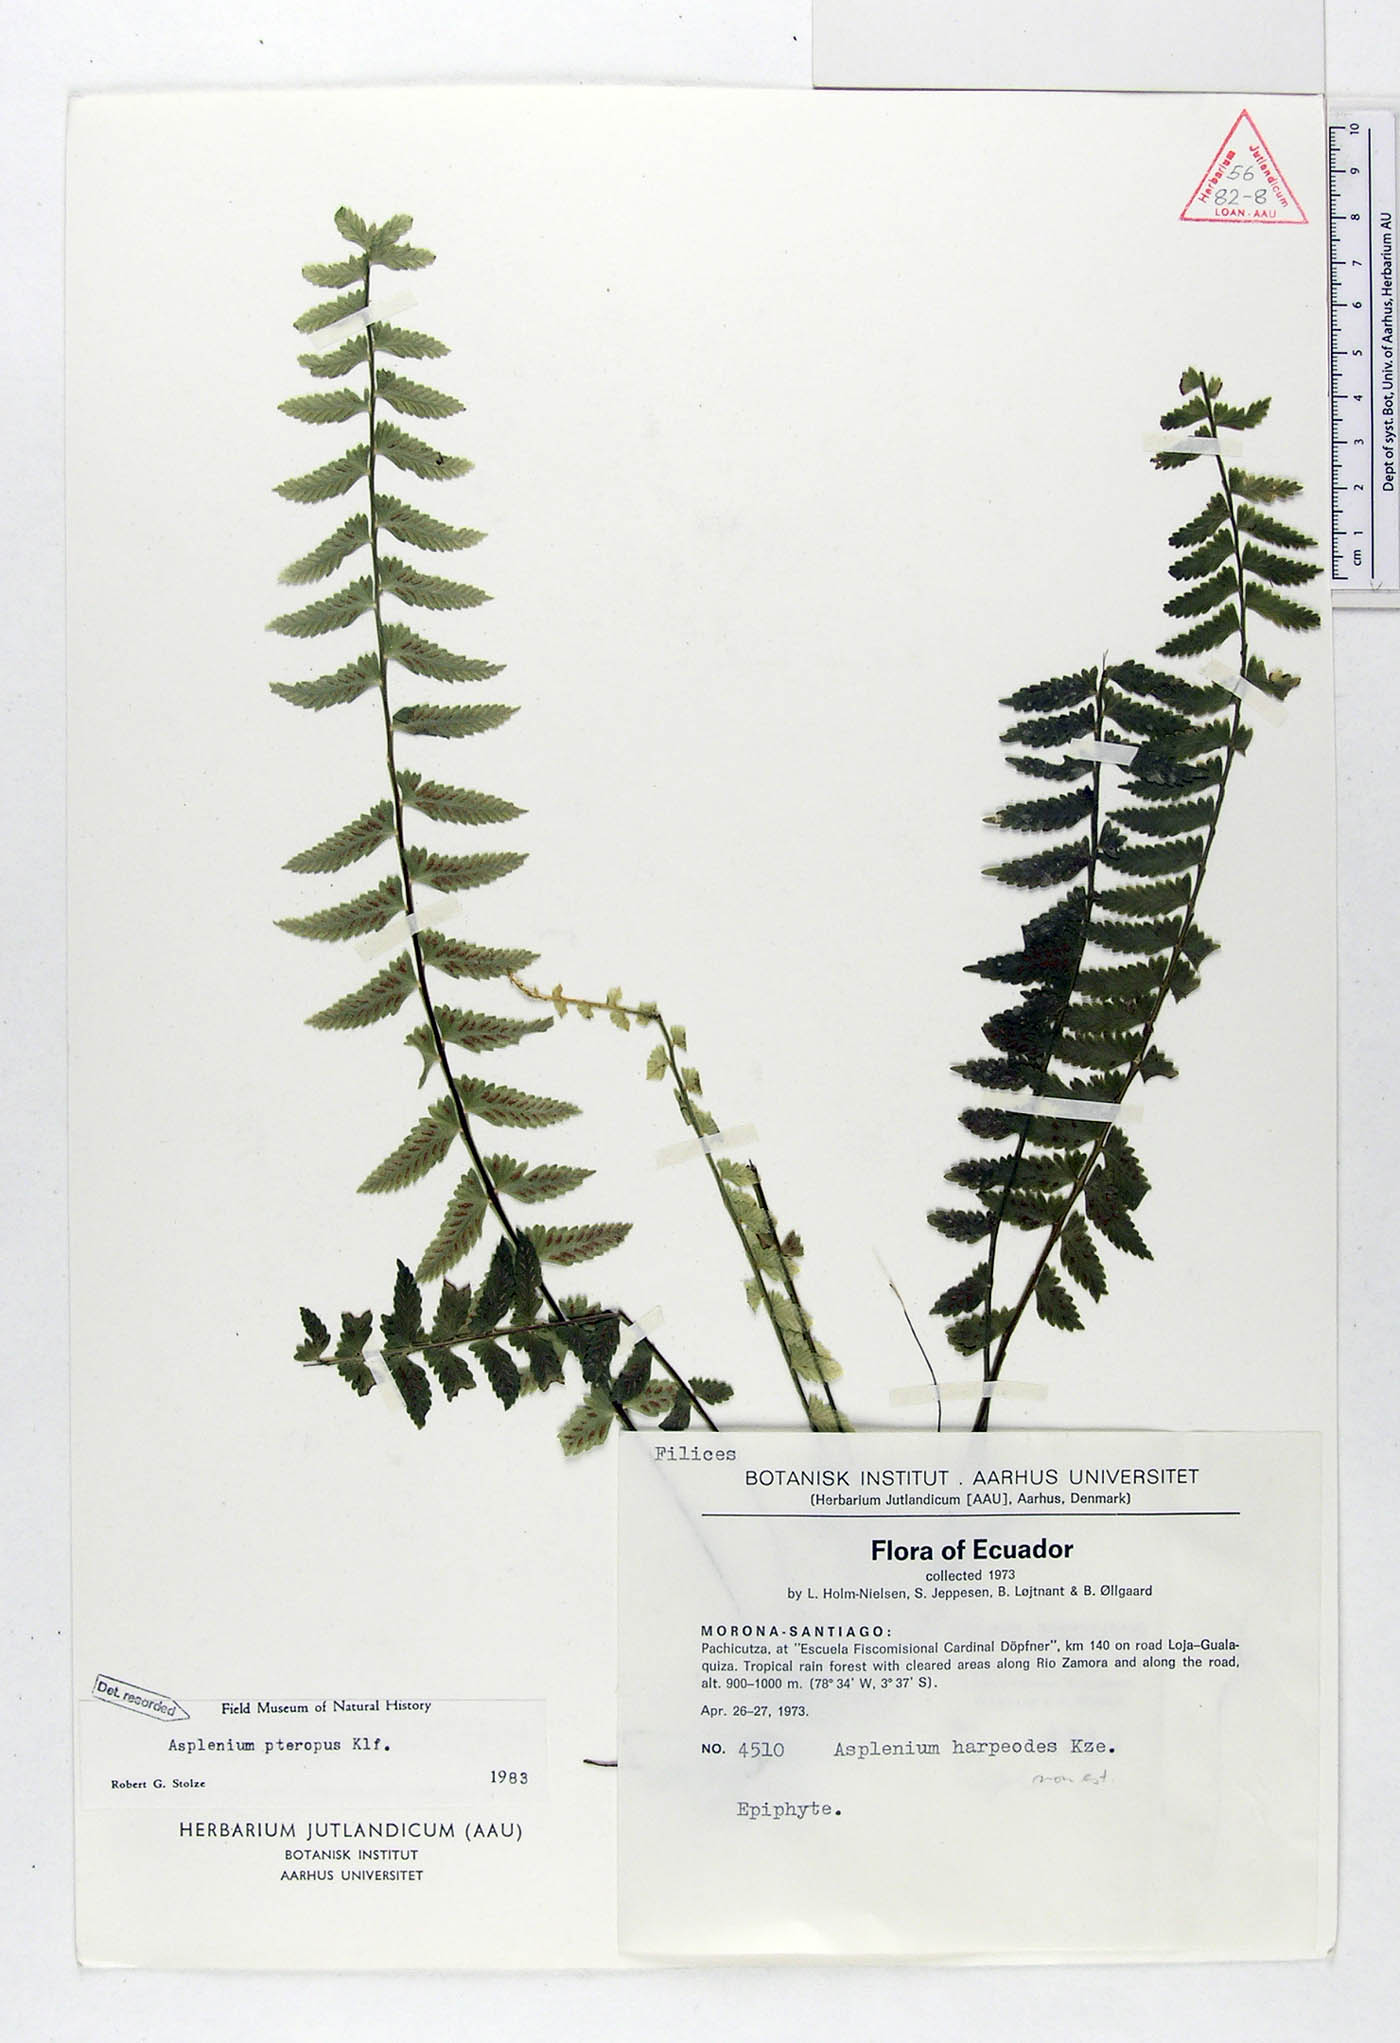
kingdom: Plantae
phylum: Tracheophyta
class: Polypodiopsida
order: Polypodiales
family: Aspleniaceae
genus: Asplenium
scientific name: Asplenium pteropus
